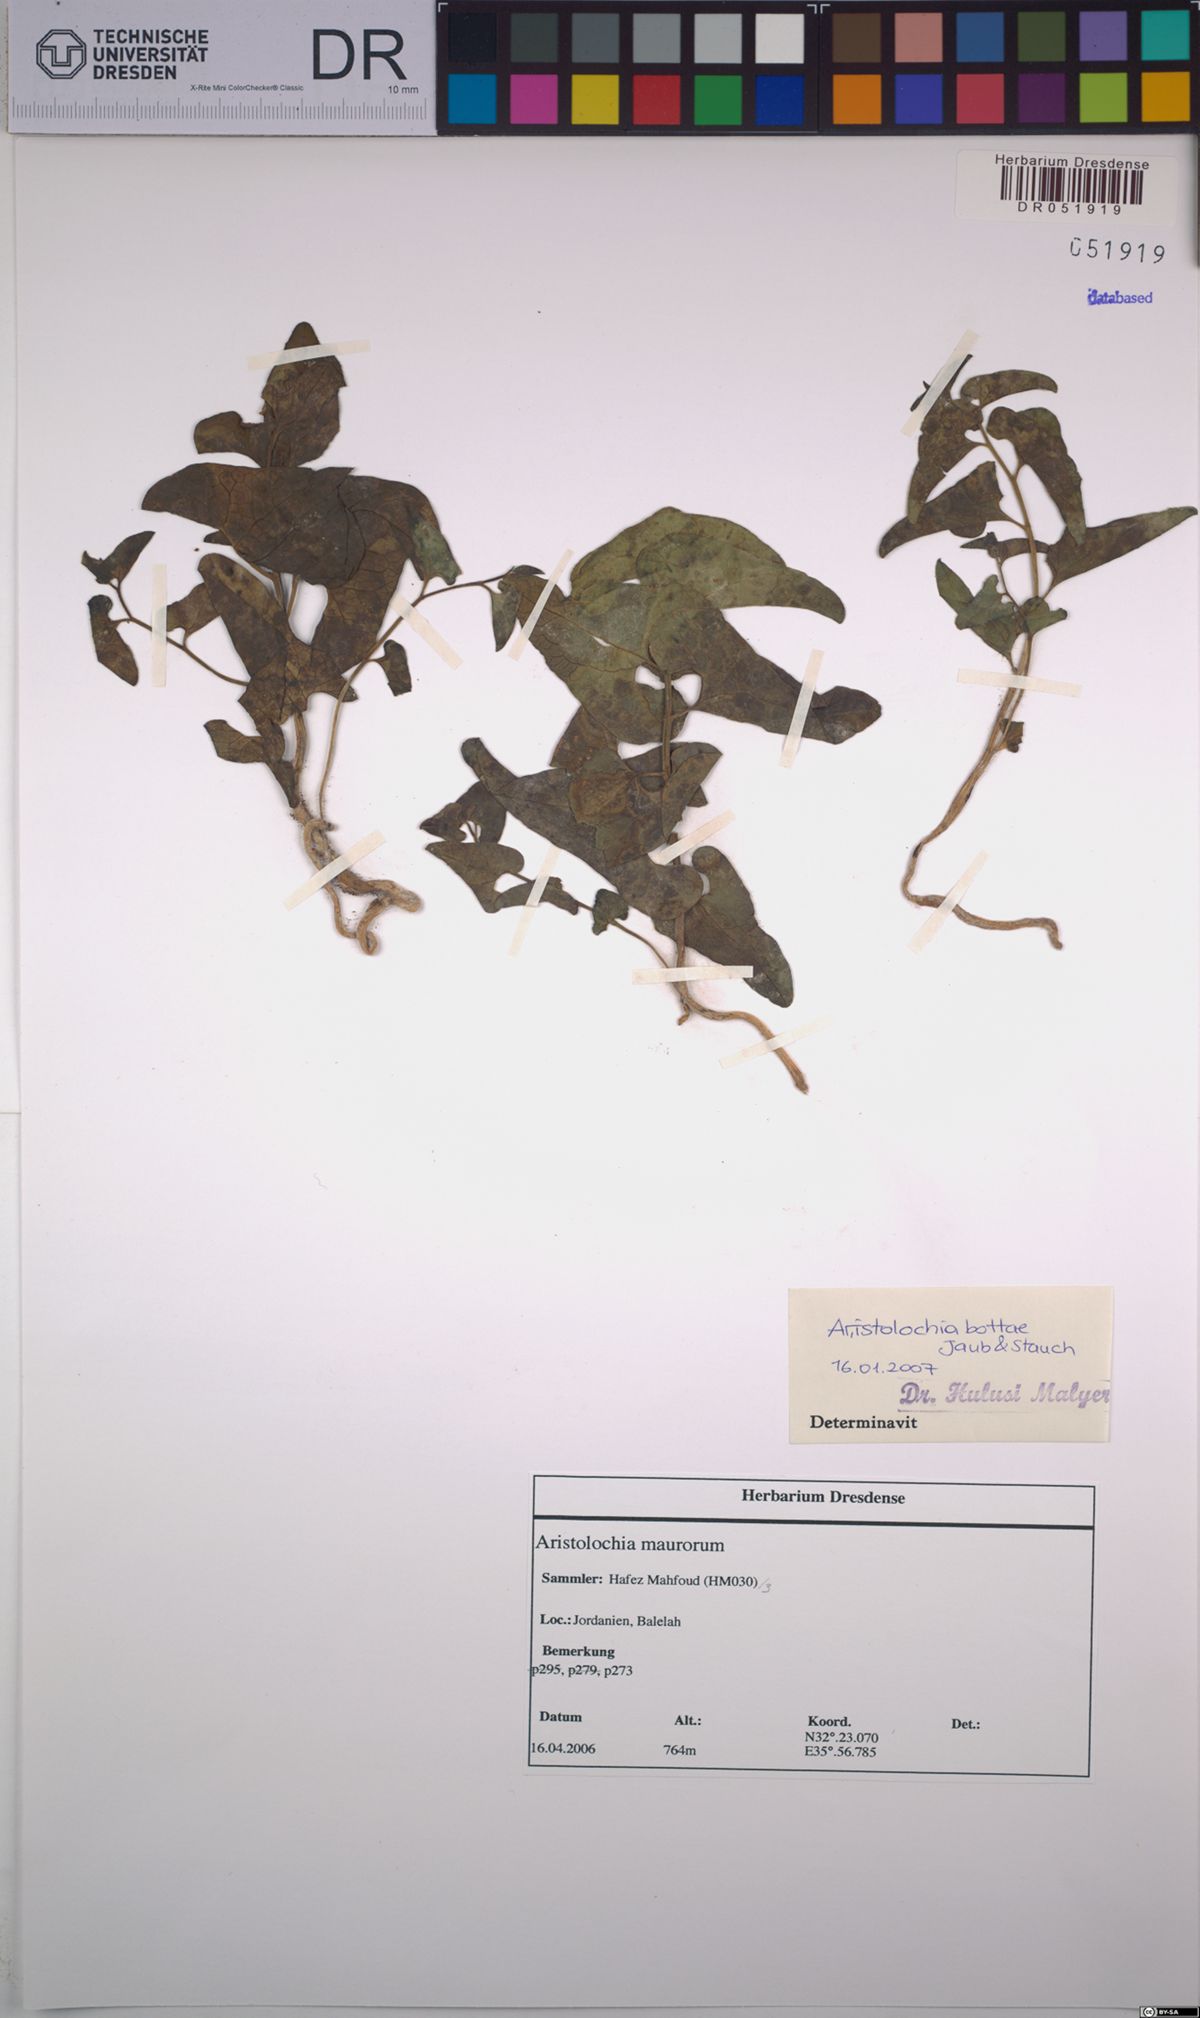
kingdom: Plantae
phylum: Tracheophyta
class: Magnoliopsida
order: Piperales
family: Aristolochiaceae
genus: Aristolochia
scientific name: Aristolochia bottae
